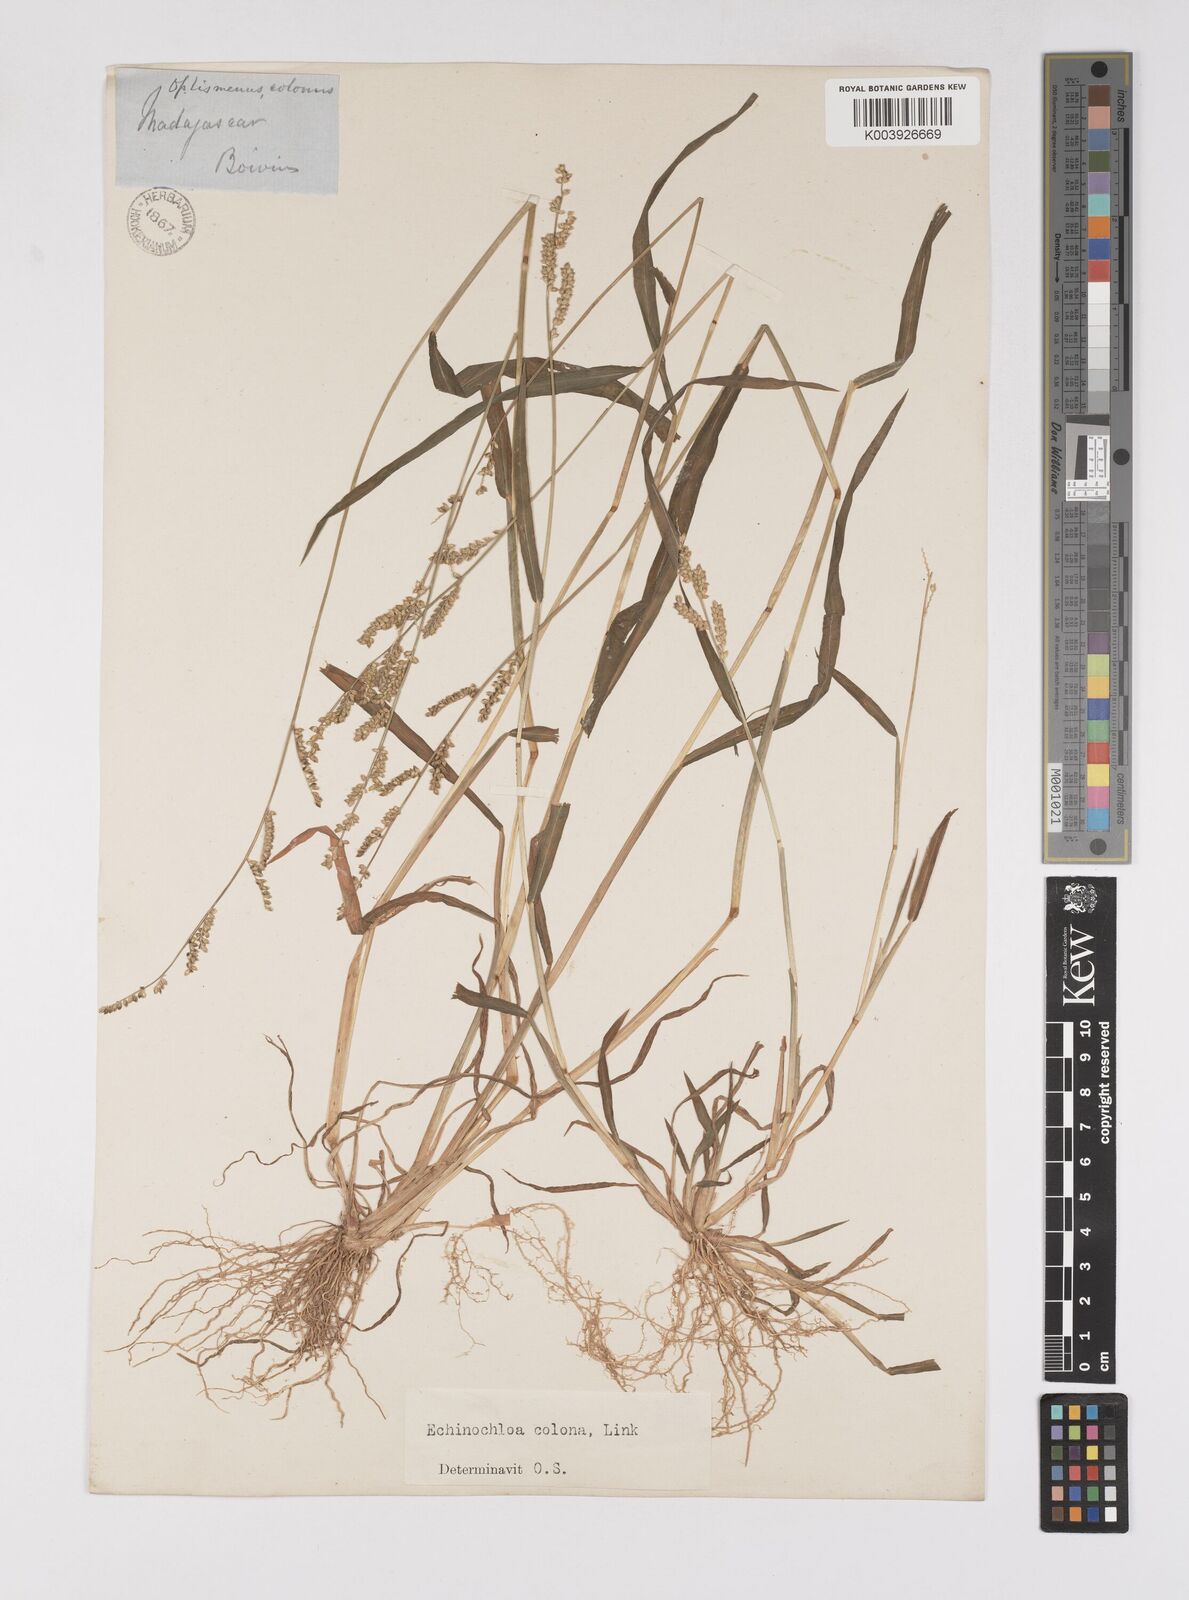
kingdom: Plantae
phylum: Tracheophyta
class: Liliopsida
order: Poales
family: Poaceae
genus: Echinochloa
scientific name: Echinochloa colonum
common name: Jungle rice
